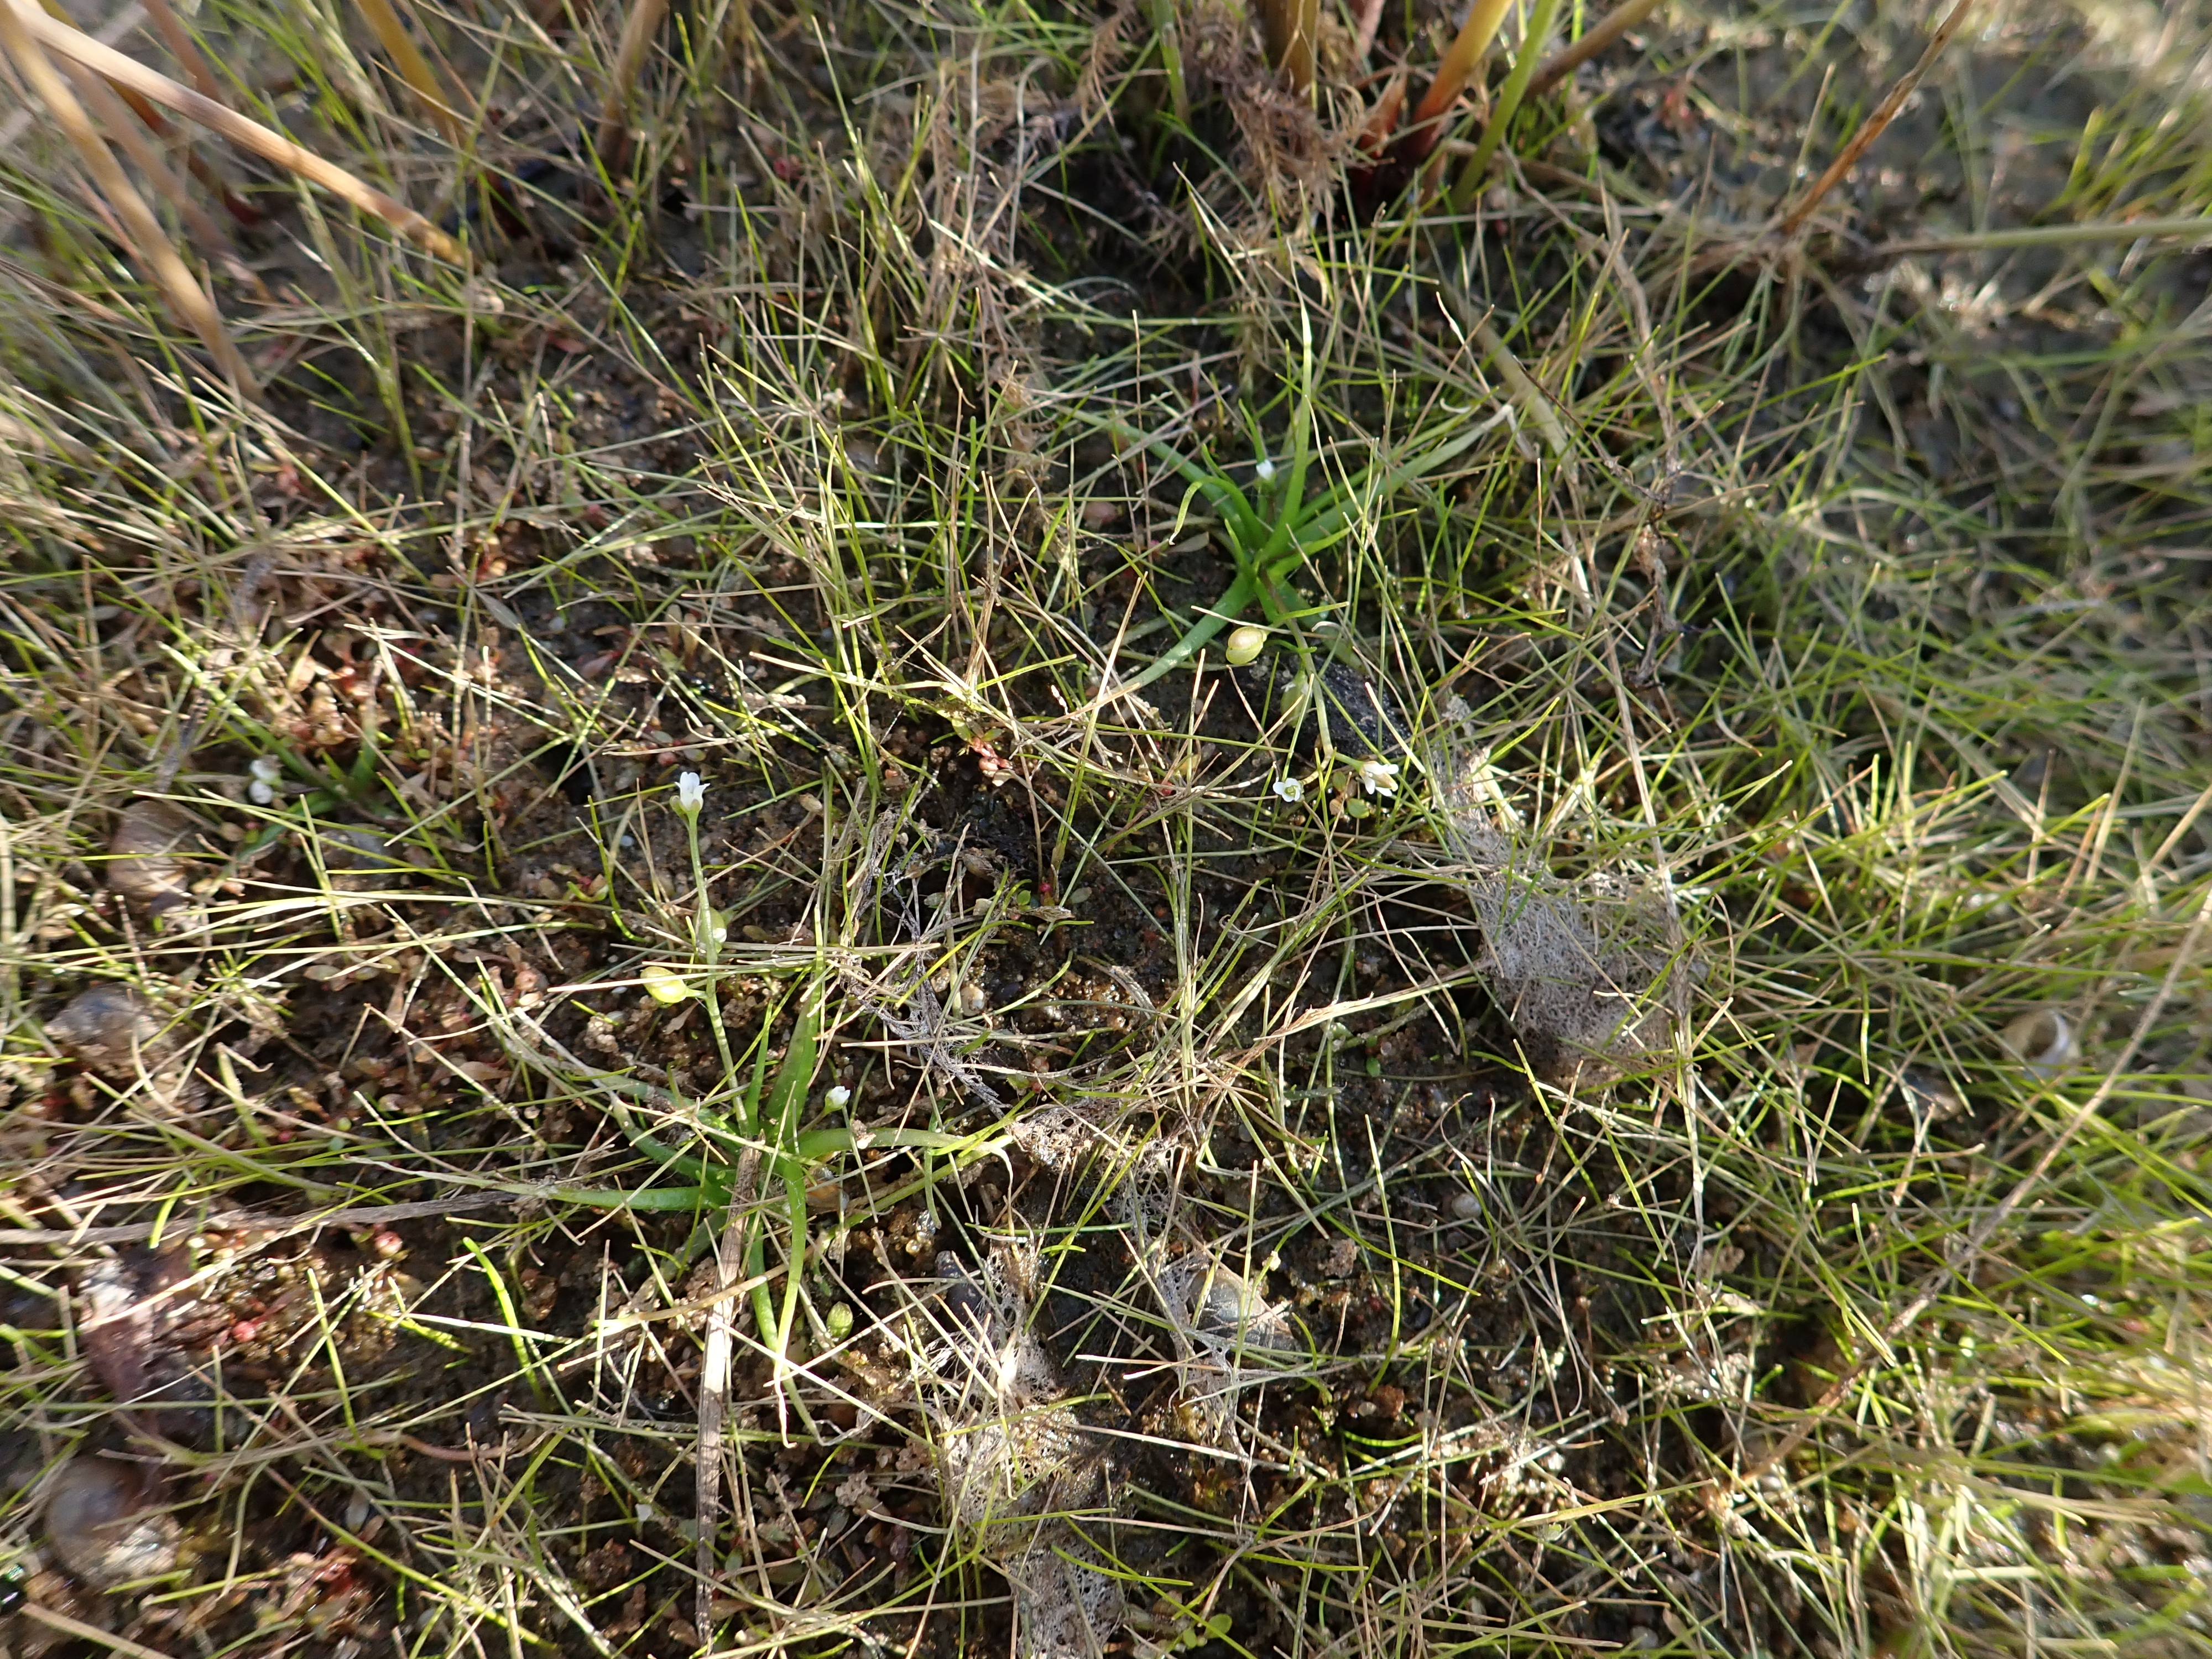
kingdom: Plantae
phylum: Tracheophyta
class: Magnoliopsida
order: Brassicales
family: Brassicaceae
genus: Subularia
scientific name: Subularia aquatica
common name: Awlwort
